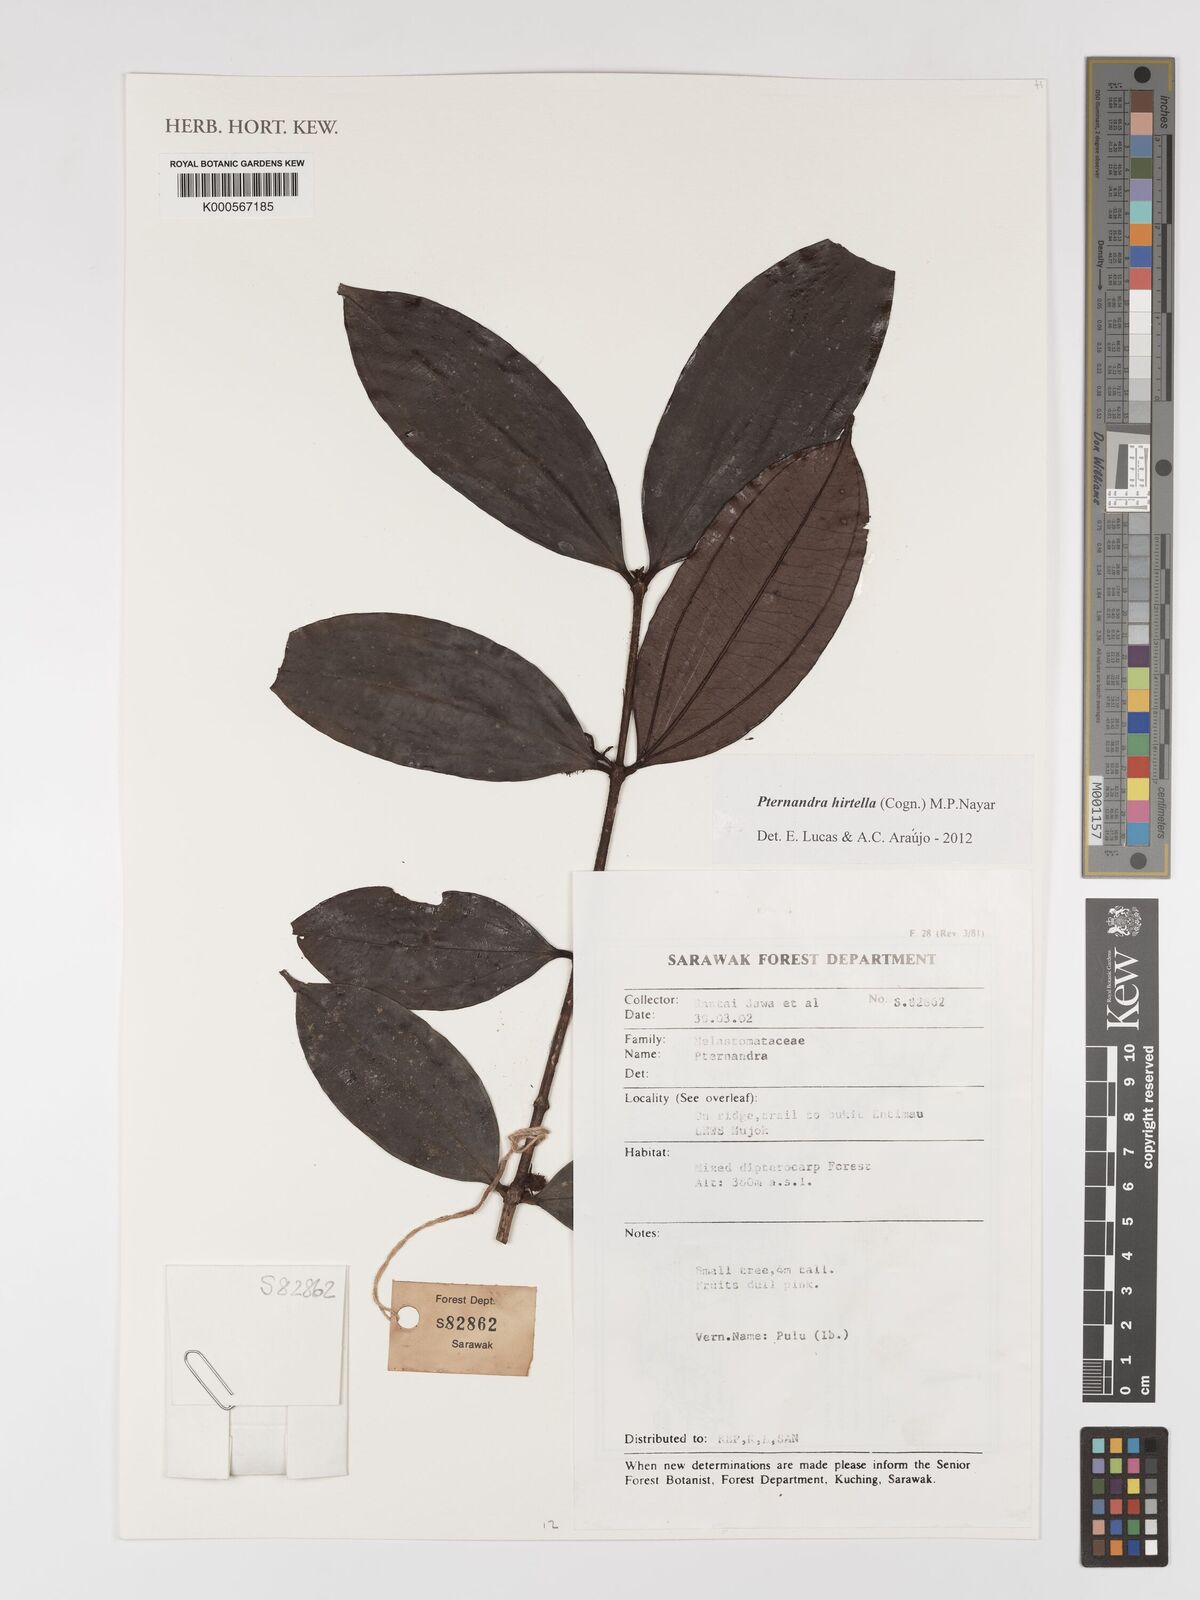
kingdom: Plantae
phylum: Tracheophyta
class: Magnoliopsida
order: Myrtales
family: Melastomataceae
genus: Pternandra
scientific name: Pternandra hirtella
